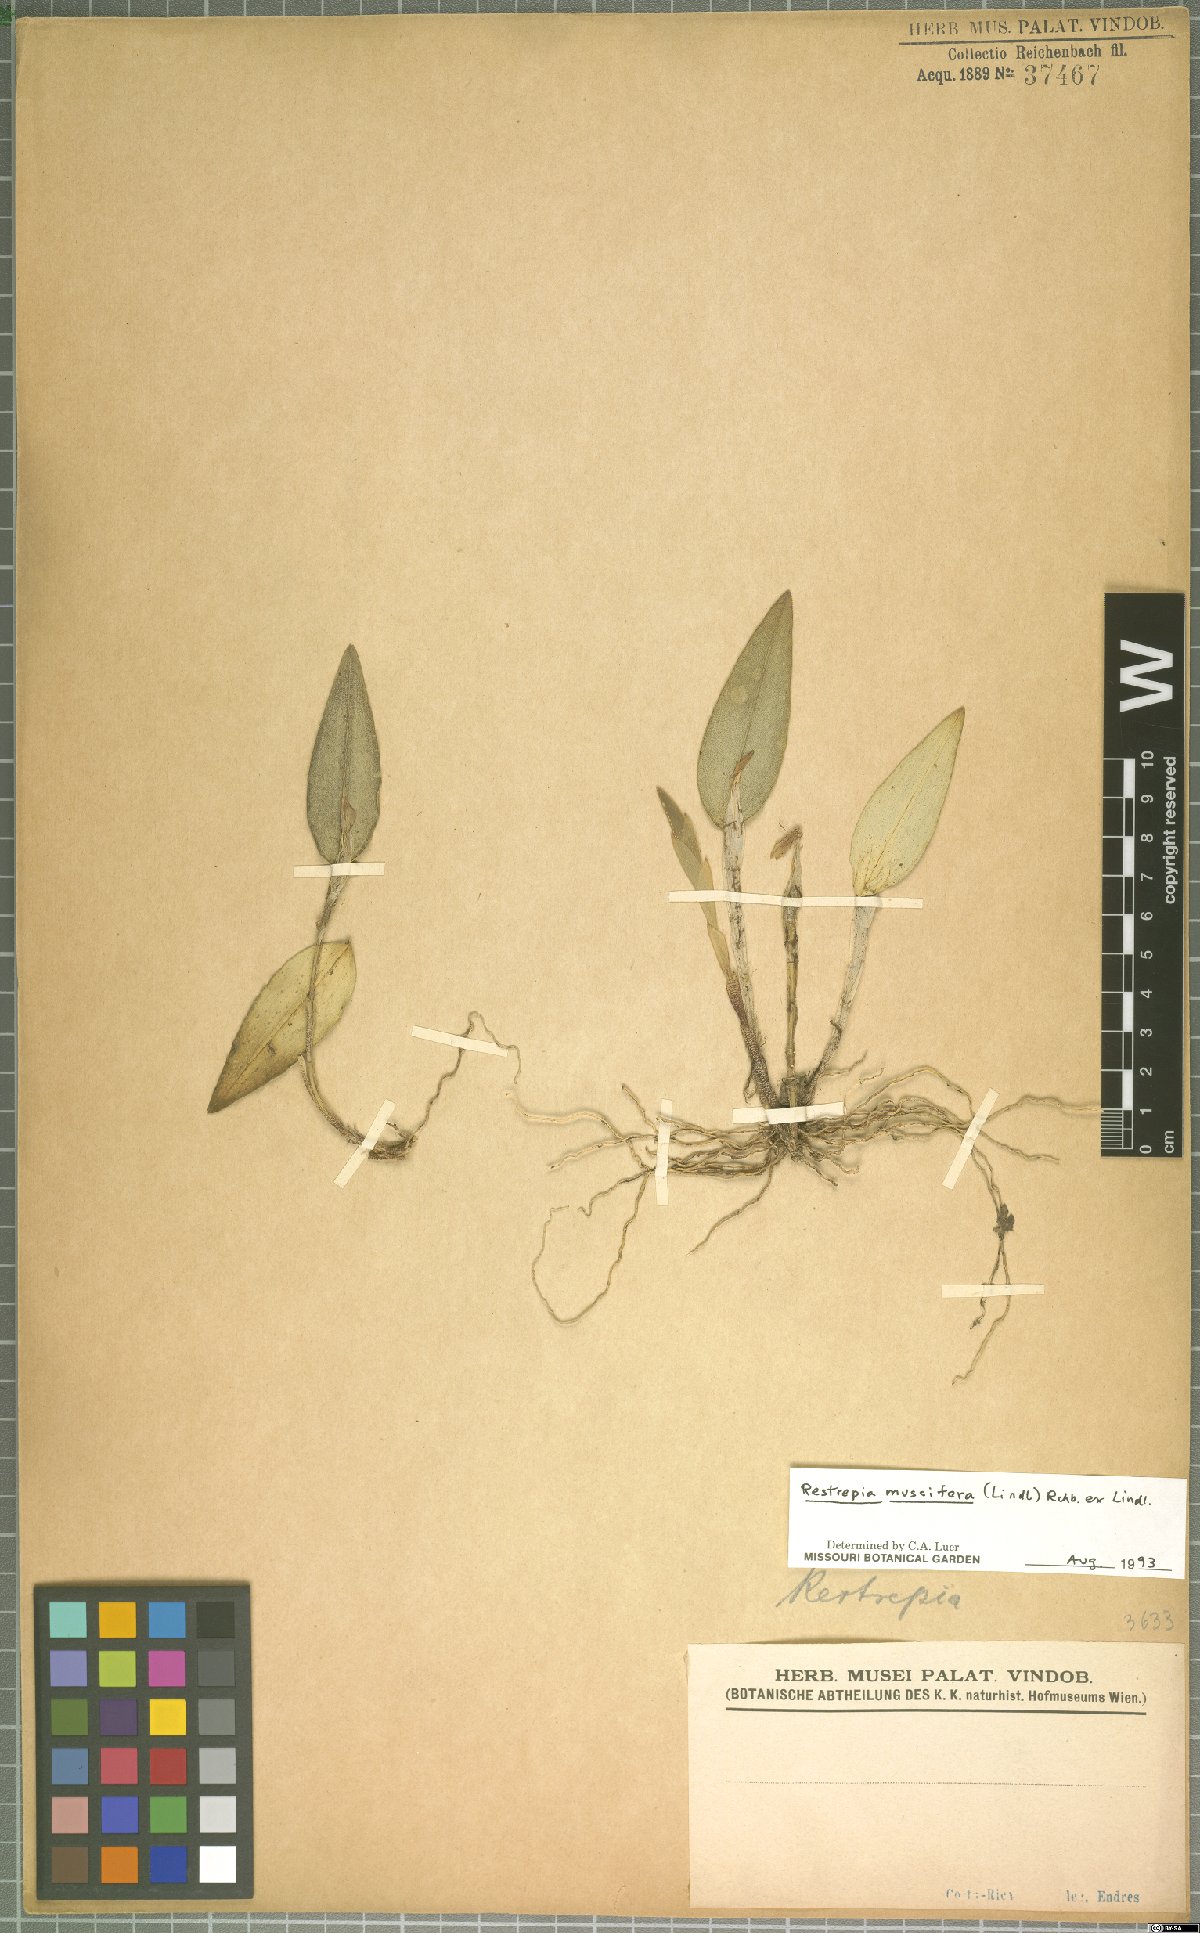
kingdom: Plantae
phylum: Tracheophyta
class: Liliopsida
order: Asparagales
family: Orchidaceae
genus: Restrepia
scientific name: Restrepia muscifera
